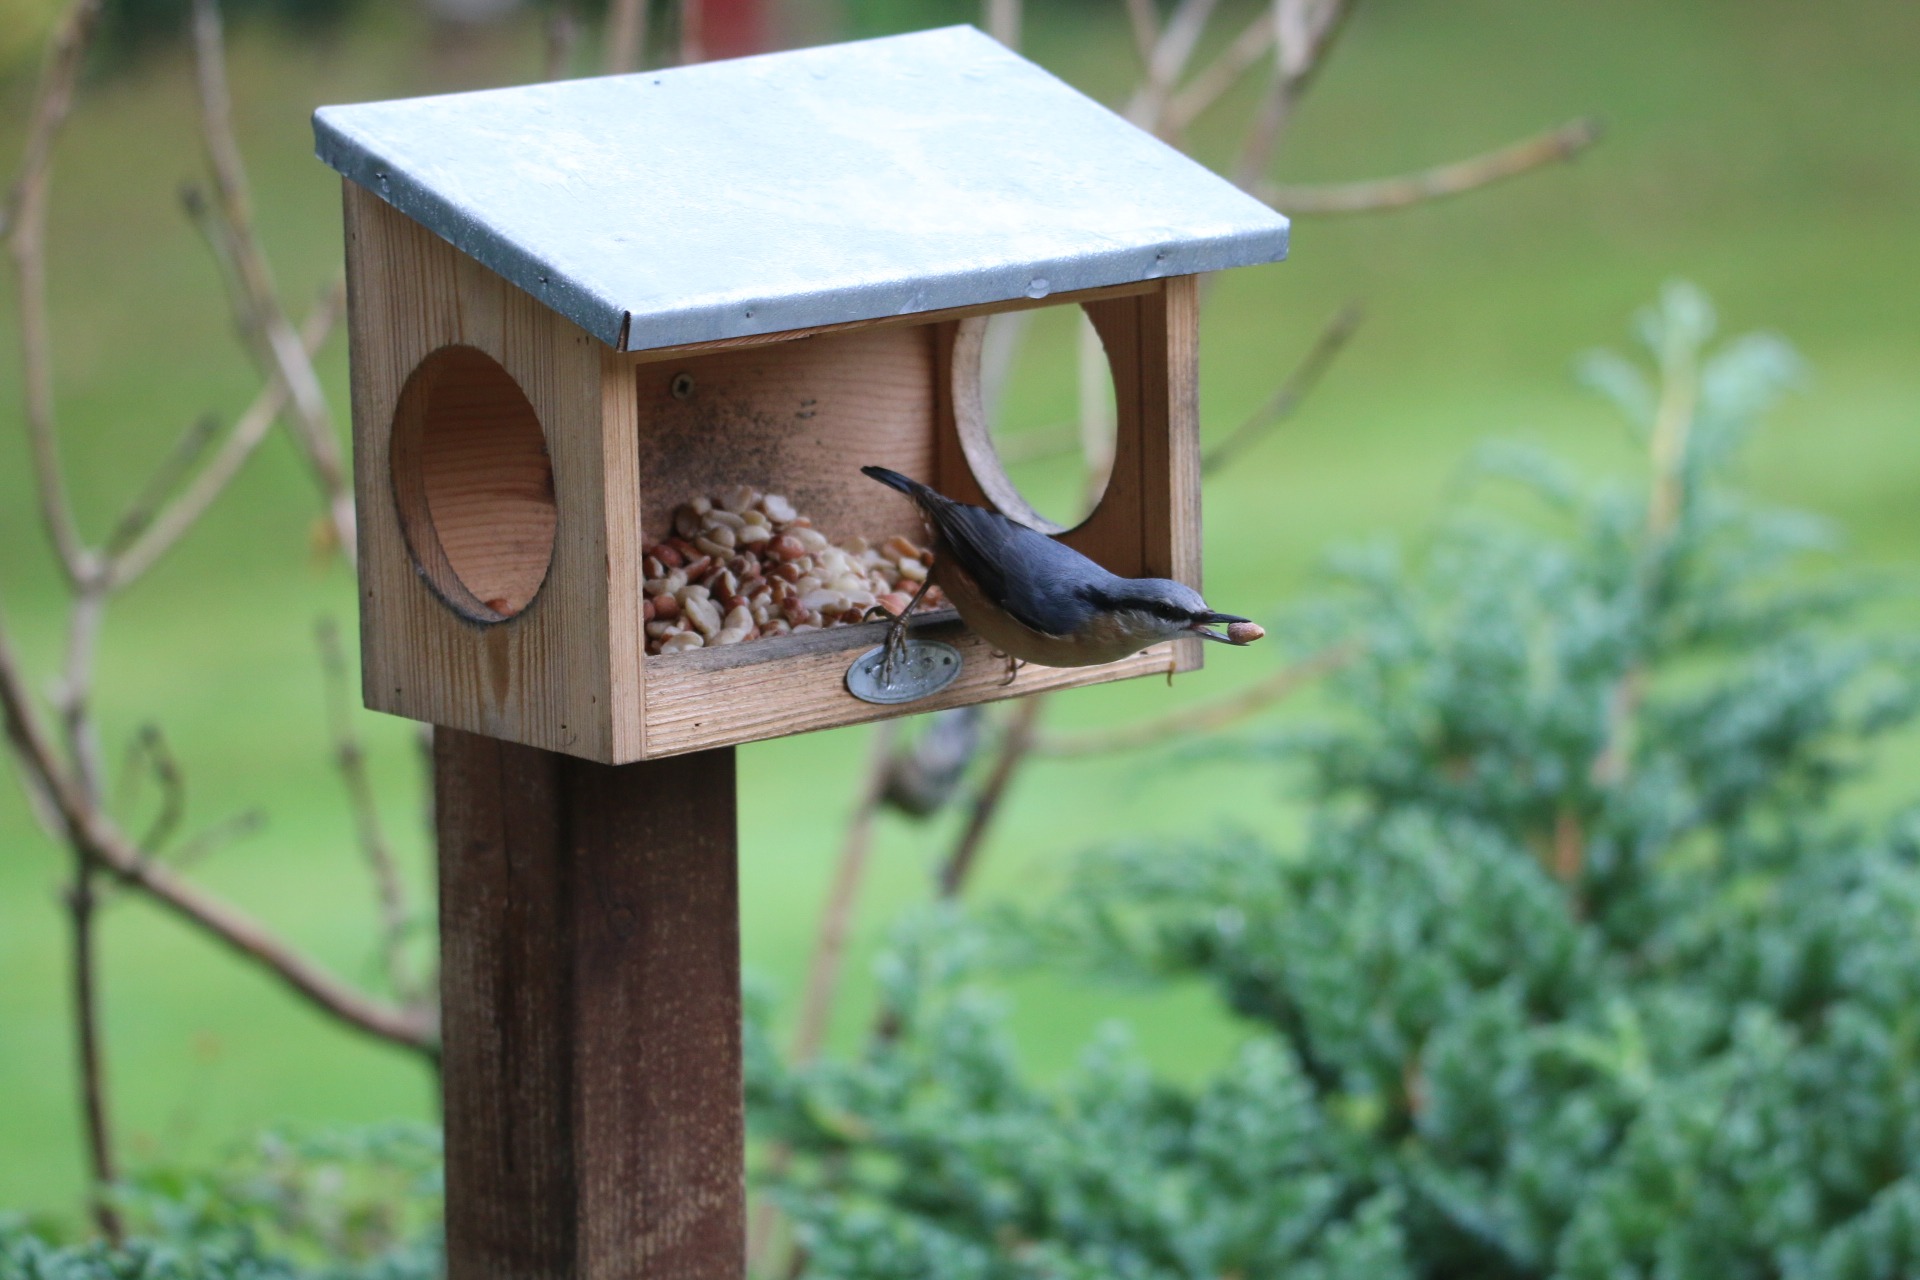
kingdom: Animalia
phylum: Chordata
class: Aves
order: Passeriformes
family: Sittidae
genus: Sitta
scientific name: Sitta europaea
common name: Spætmejse
